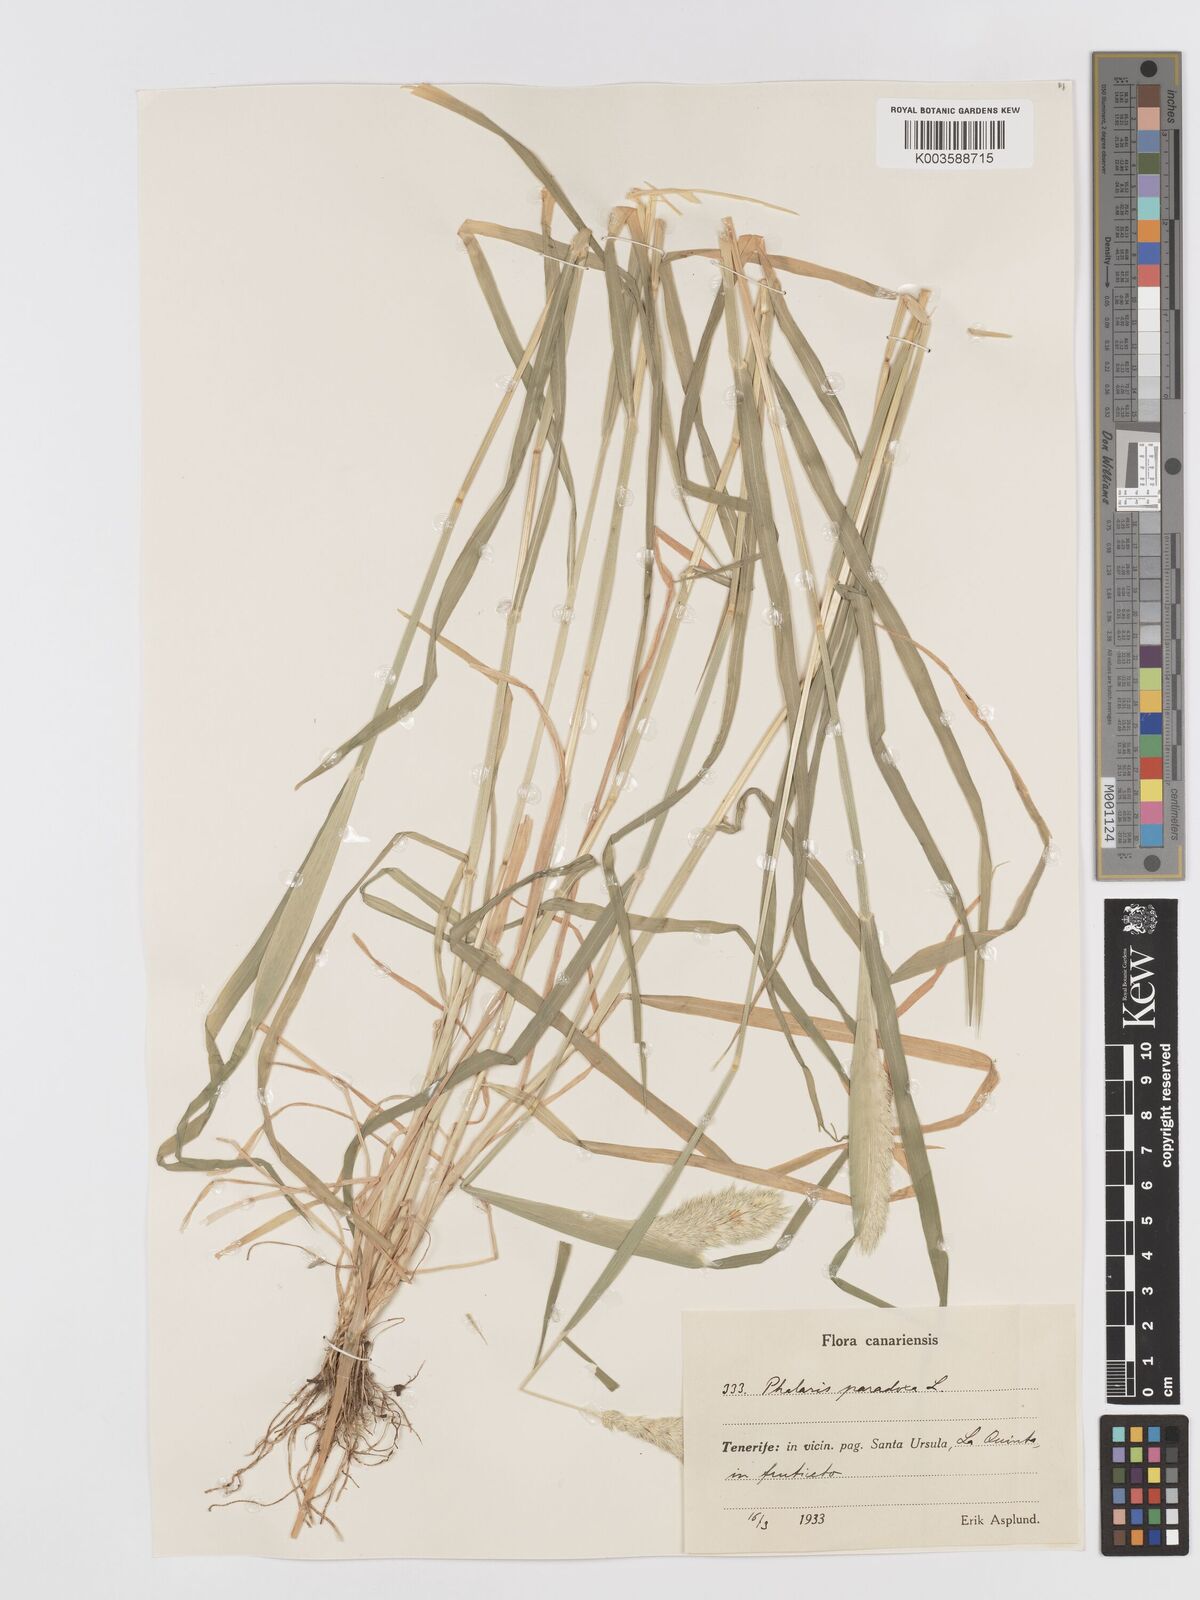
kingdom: Plantae
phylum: Tracheophyta
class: Liliopsida
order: Poales
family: Poaceae
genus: Phalaris
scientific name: Phalaris paradoxa
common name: Awned canary-grass
